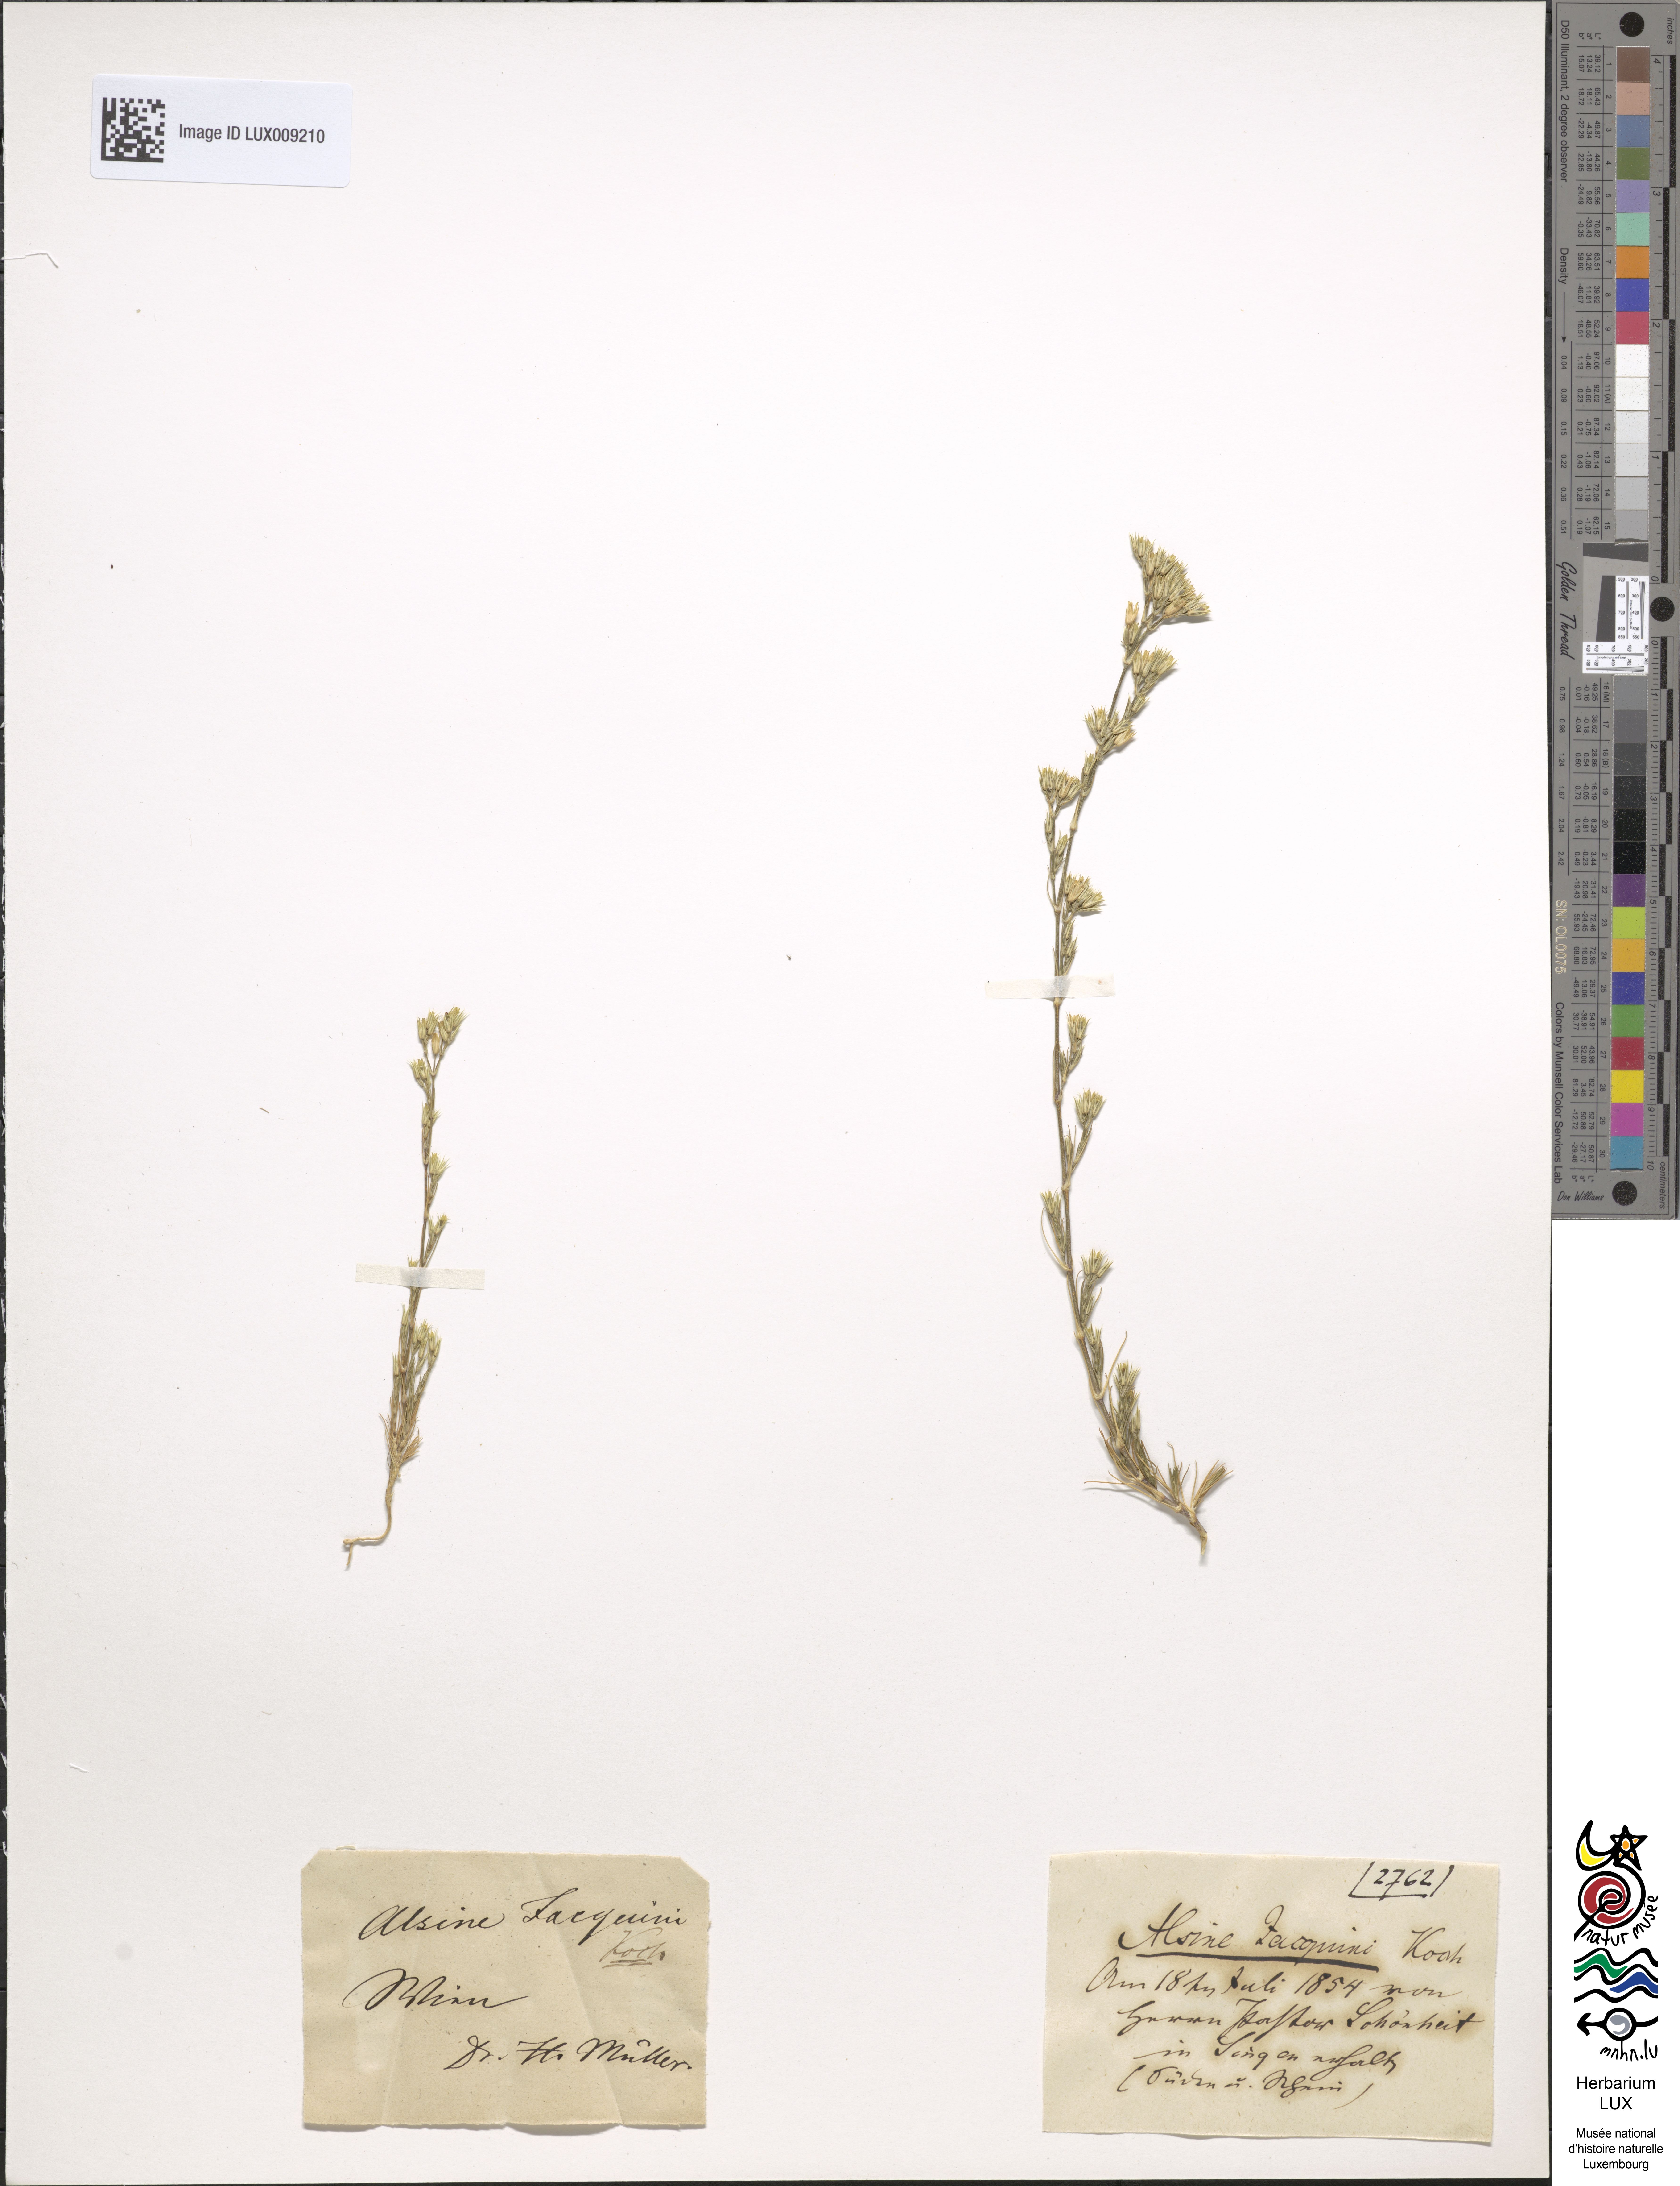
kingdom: Plantae
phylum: Tracheophyta
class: Magnoliopsida
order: Caryophyllales
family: Caryophyllaceae
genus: Minuartia
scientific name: Minuartia mucronata
